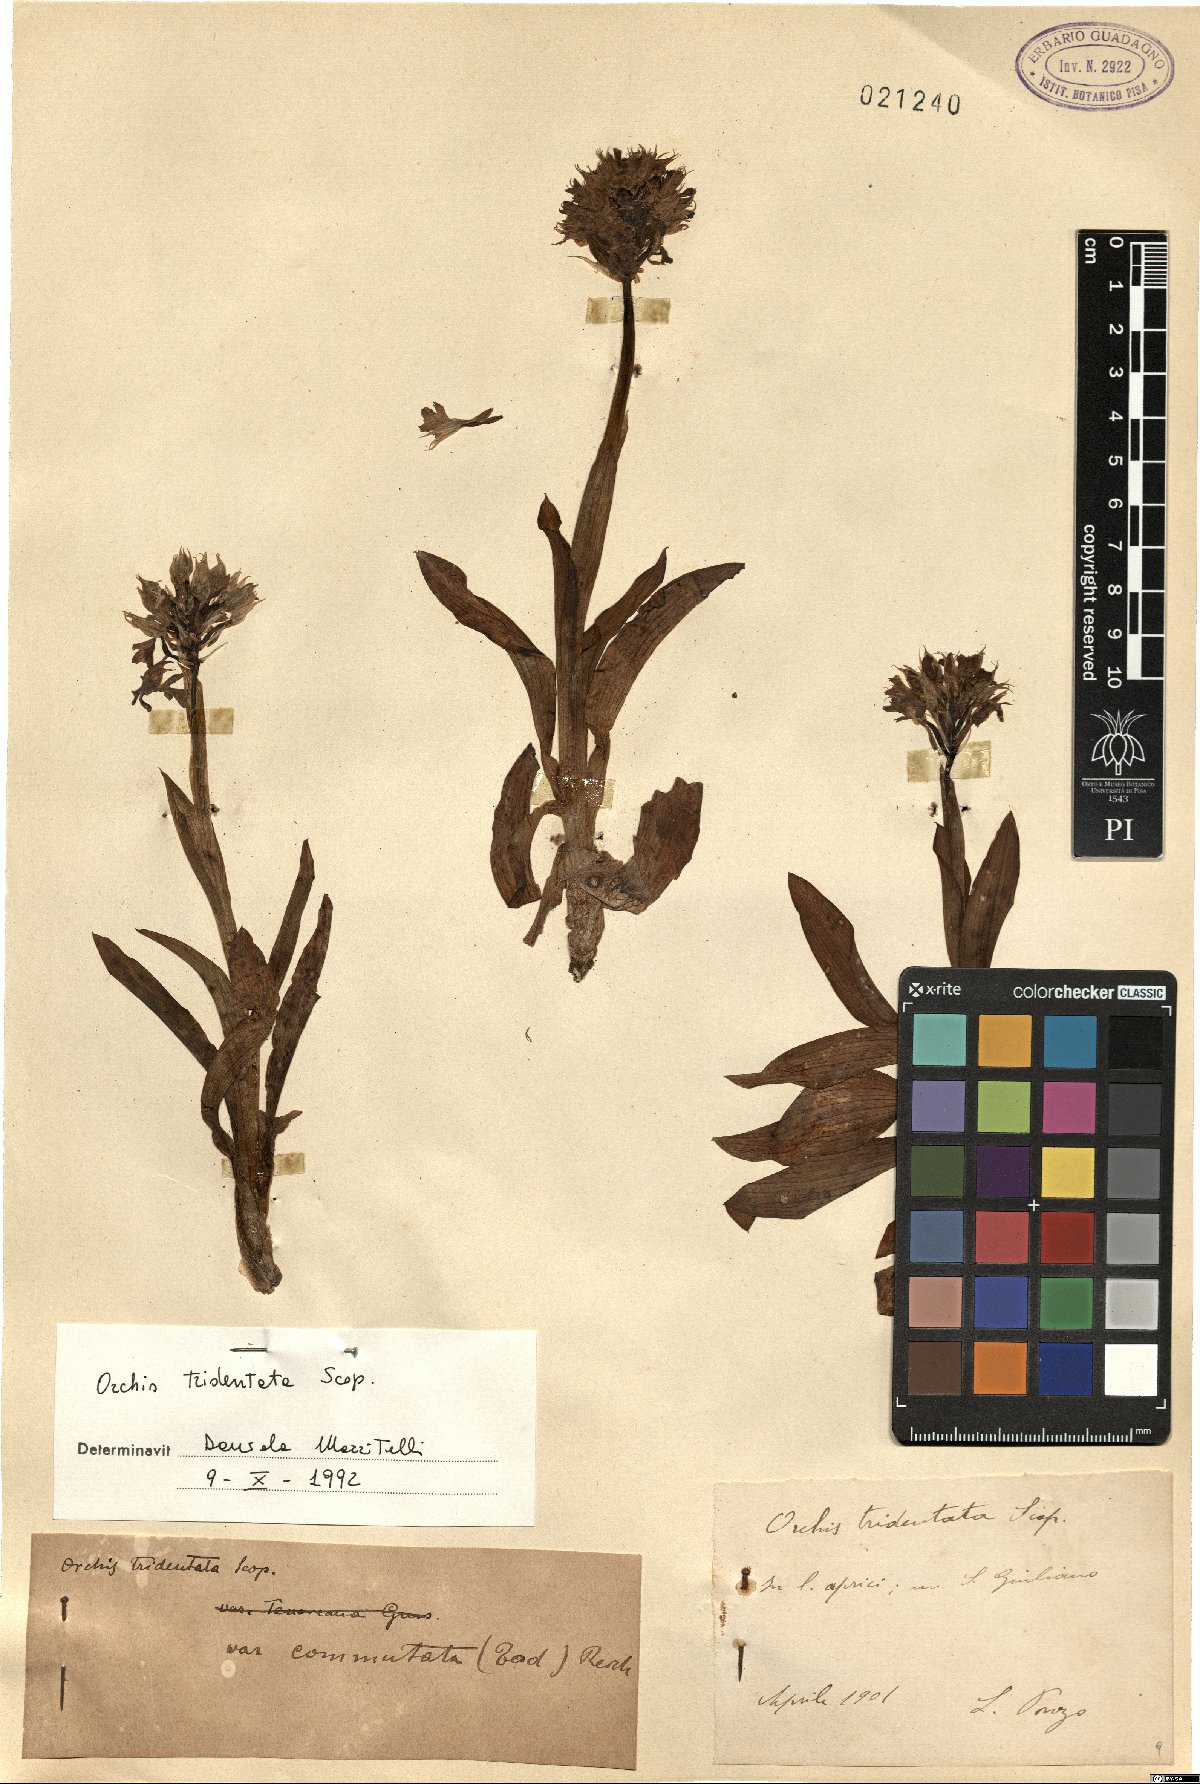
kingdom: Plantae
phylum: Tracheophyta
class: Liliopsida
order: Asparagales
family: Orchidaceae
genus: Neotinea
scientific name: Neotinea tridentata
